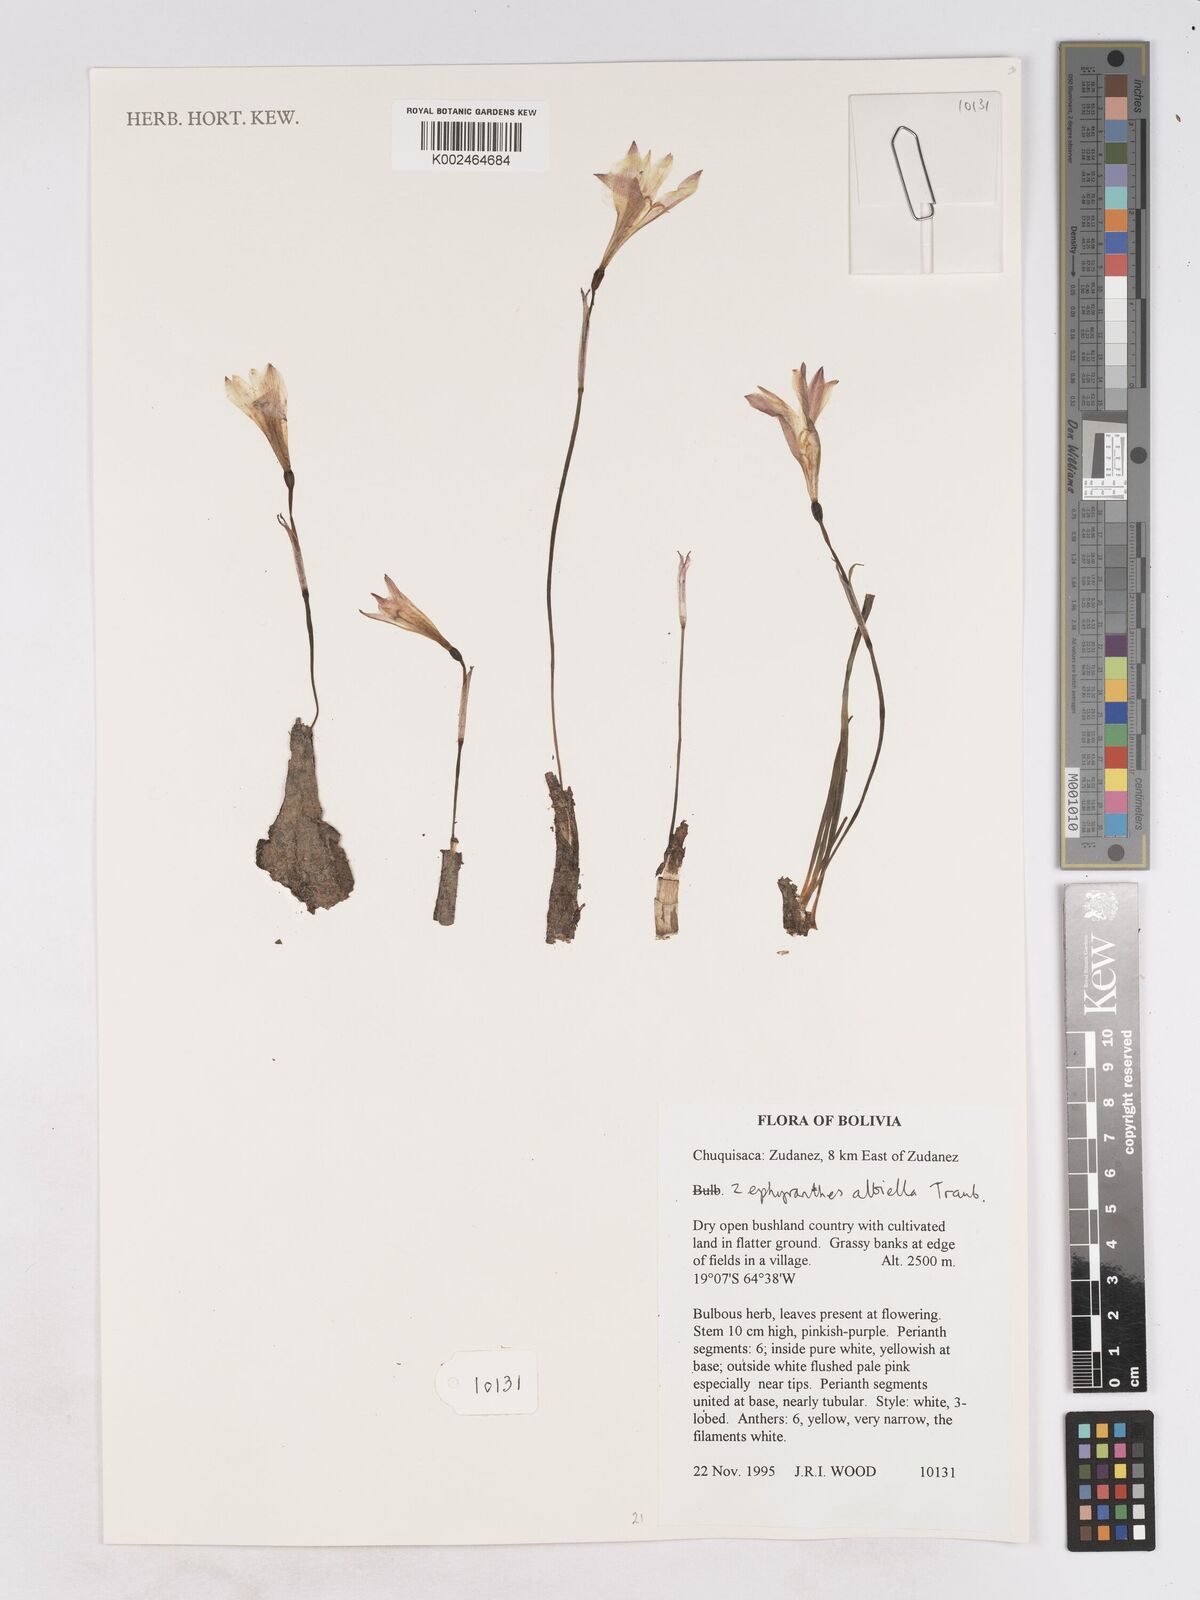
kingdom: Plantae
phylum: Tracheophyta
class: Liliopsida
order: Asparagales
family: Amaryllidaceae
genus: Zephyranthes
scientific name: Zephyranthes albiella
